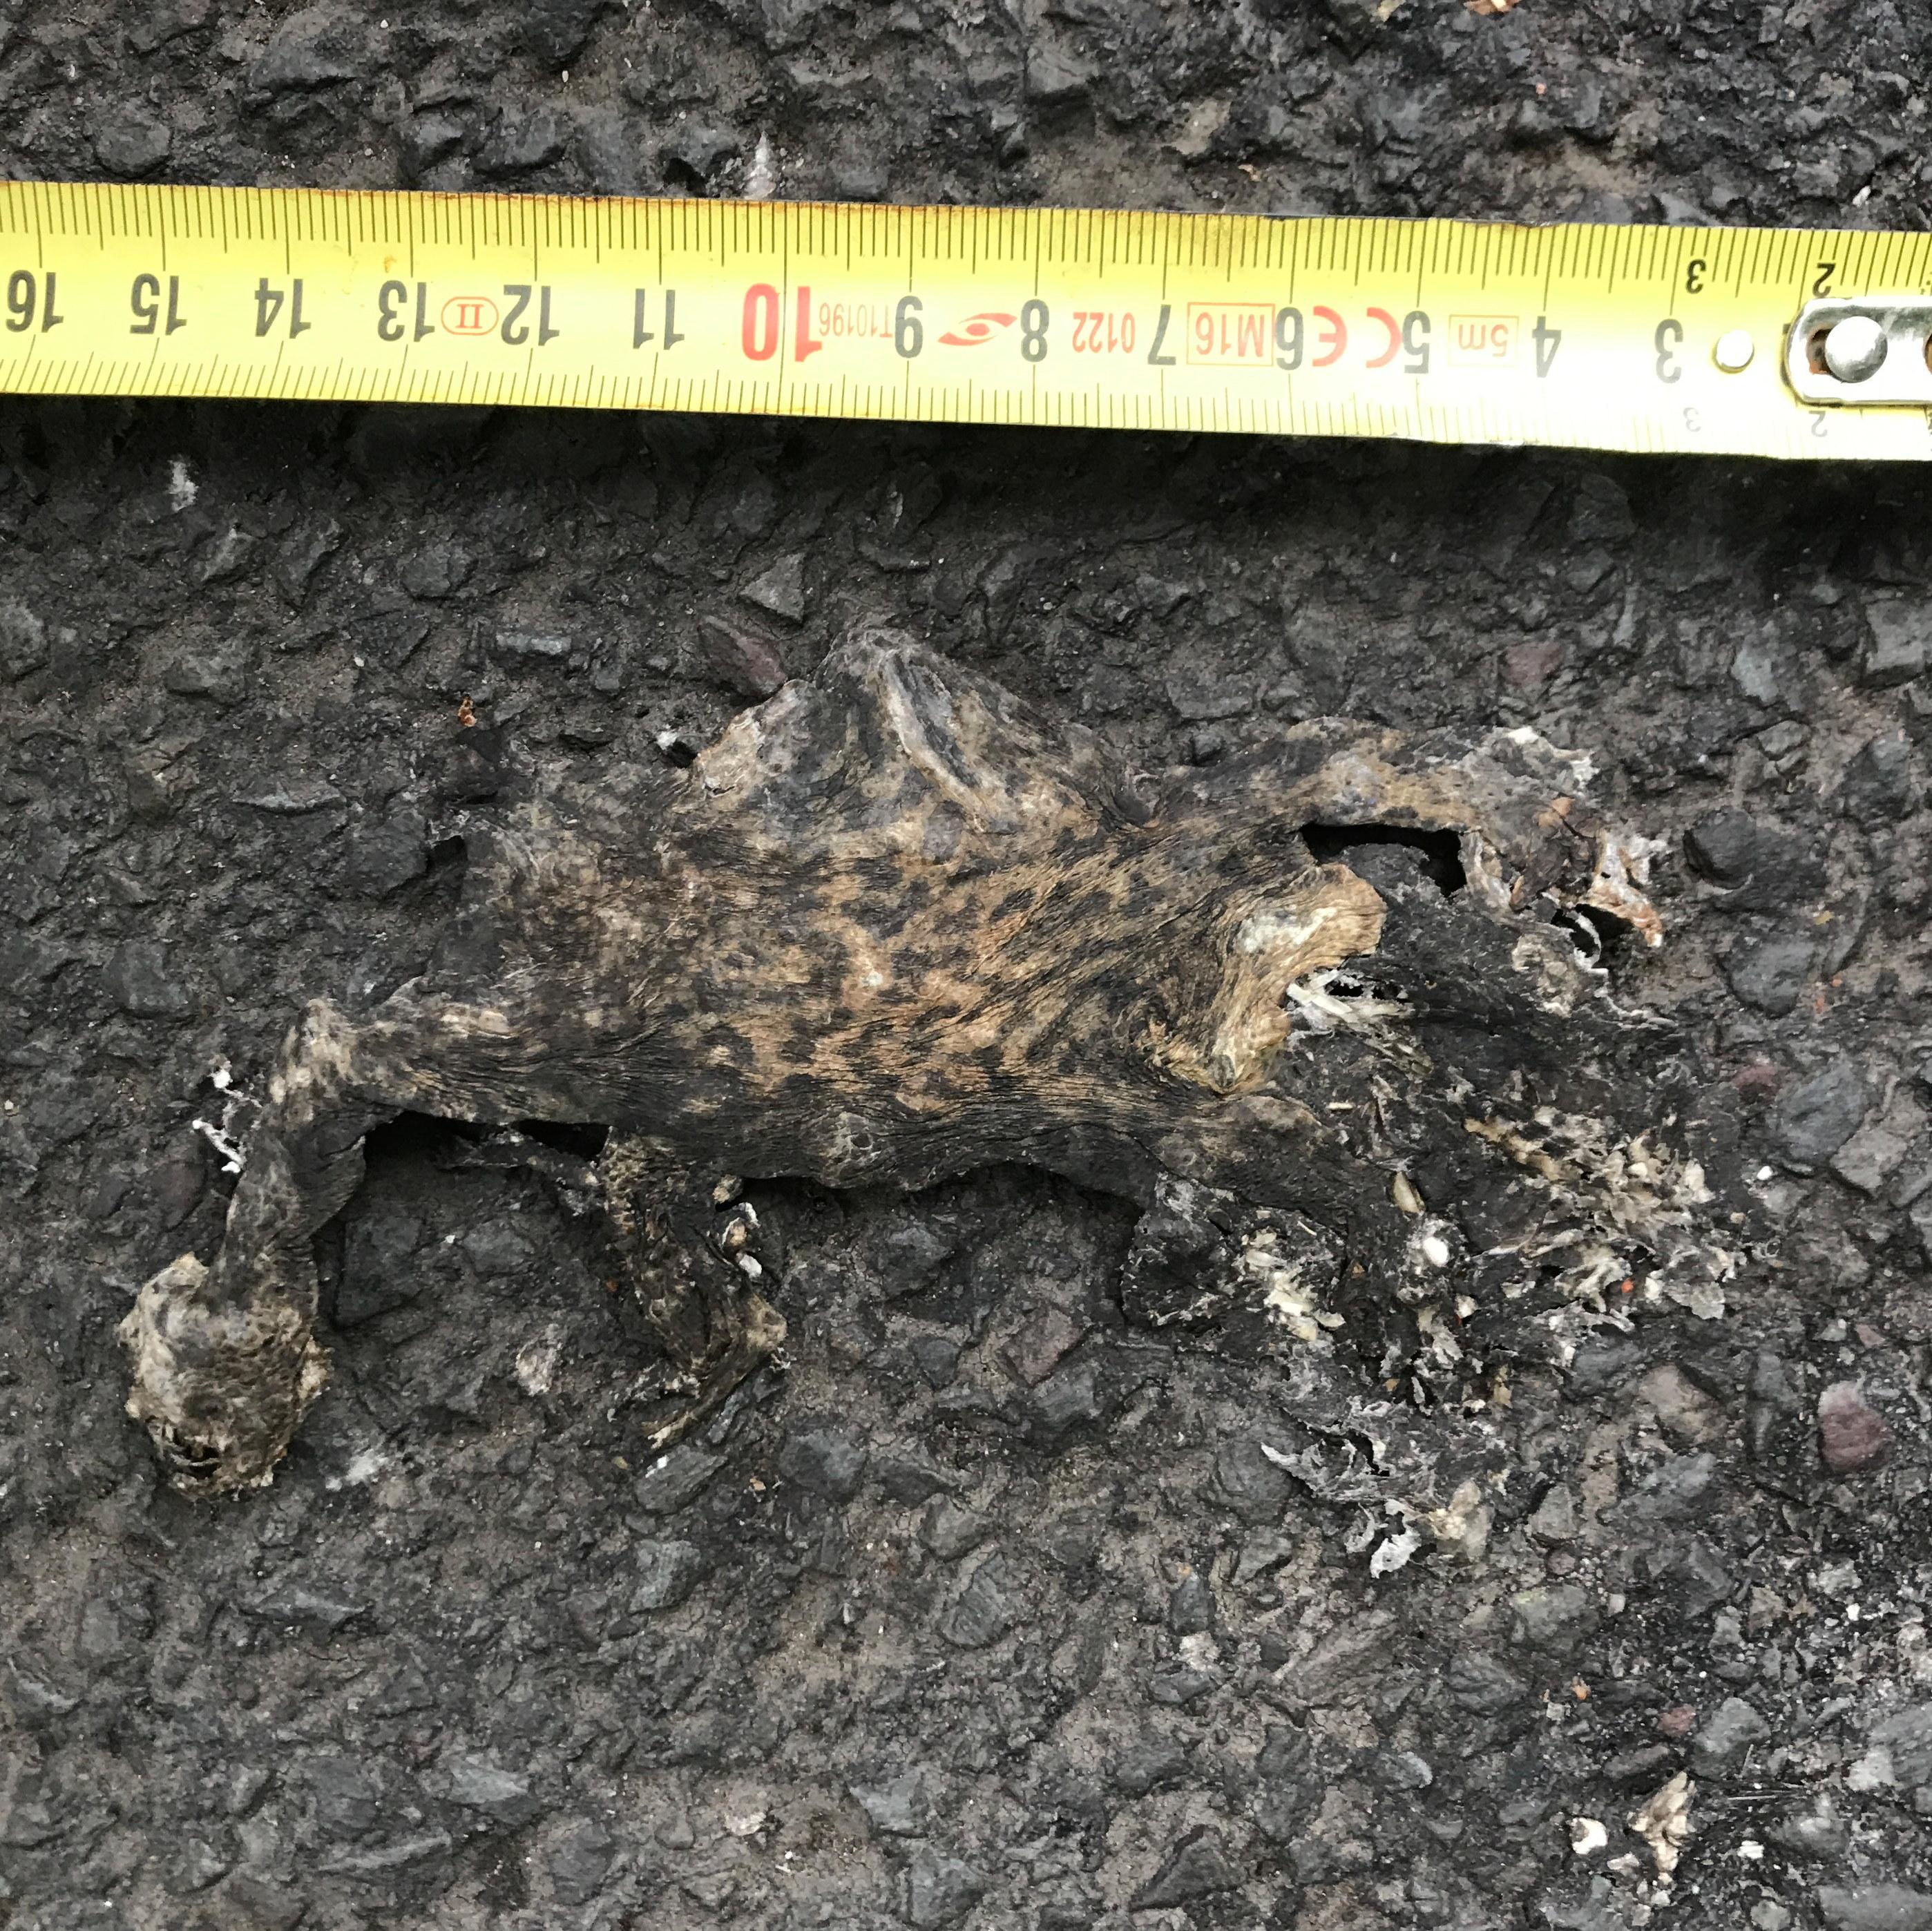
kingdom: Animalia
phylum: Chordata
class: Amphibia
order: Anura
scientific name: Anura
